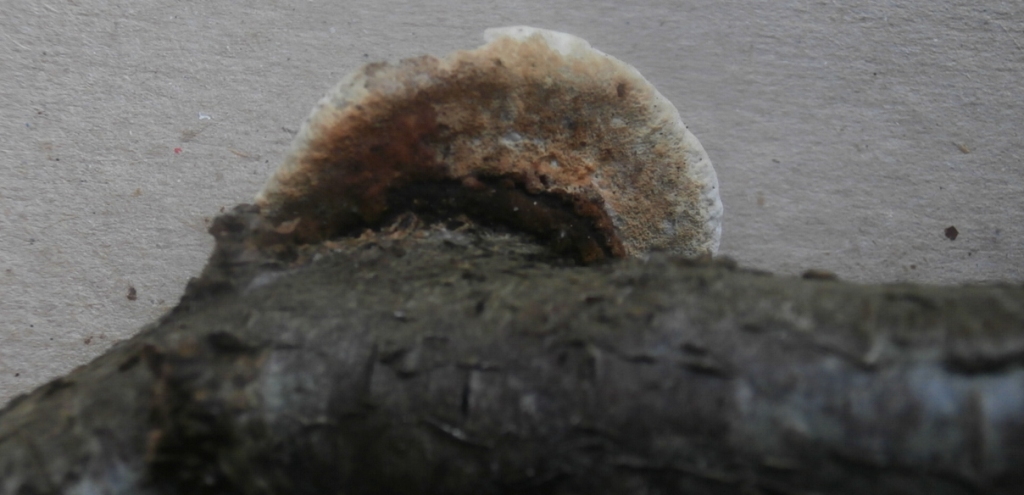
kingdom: Fungi
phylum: Basidiomycota
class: Agaricomycetes
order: Polyporales
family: Incrustoporiaceae
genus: Skeletocutis
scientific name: Skeletocutis nemoralis
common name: stor krystalporesvamp
